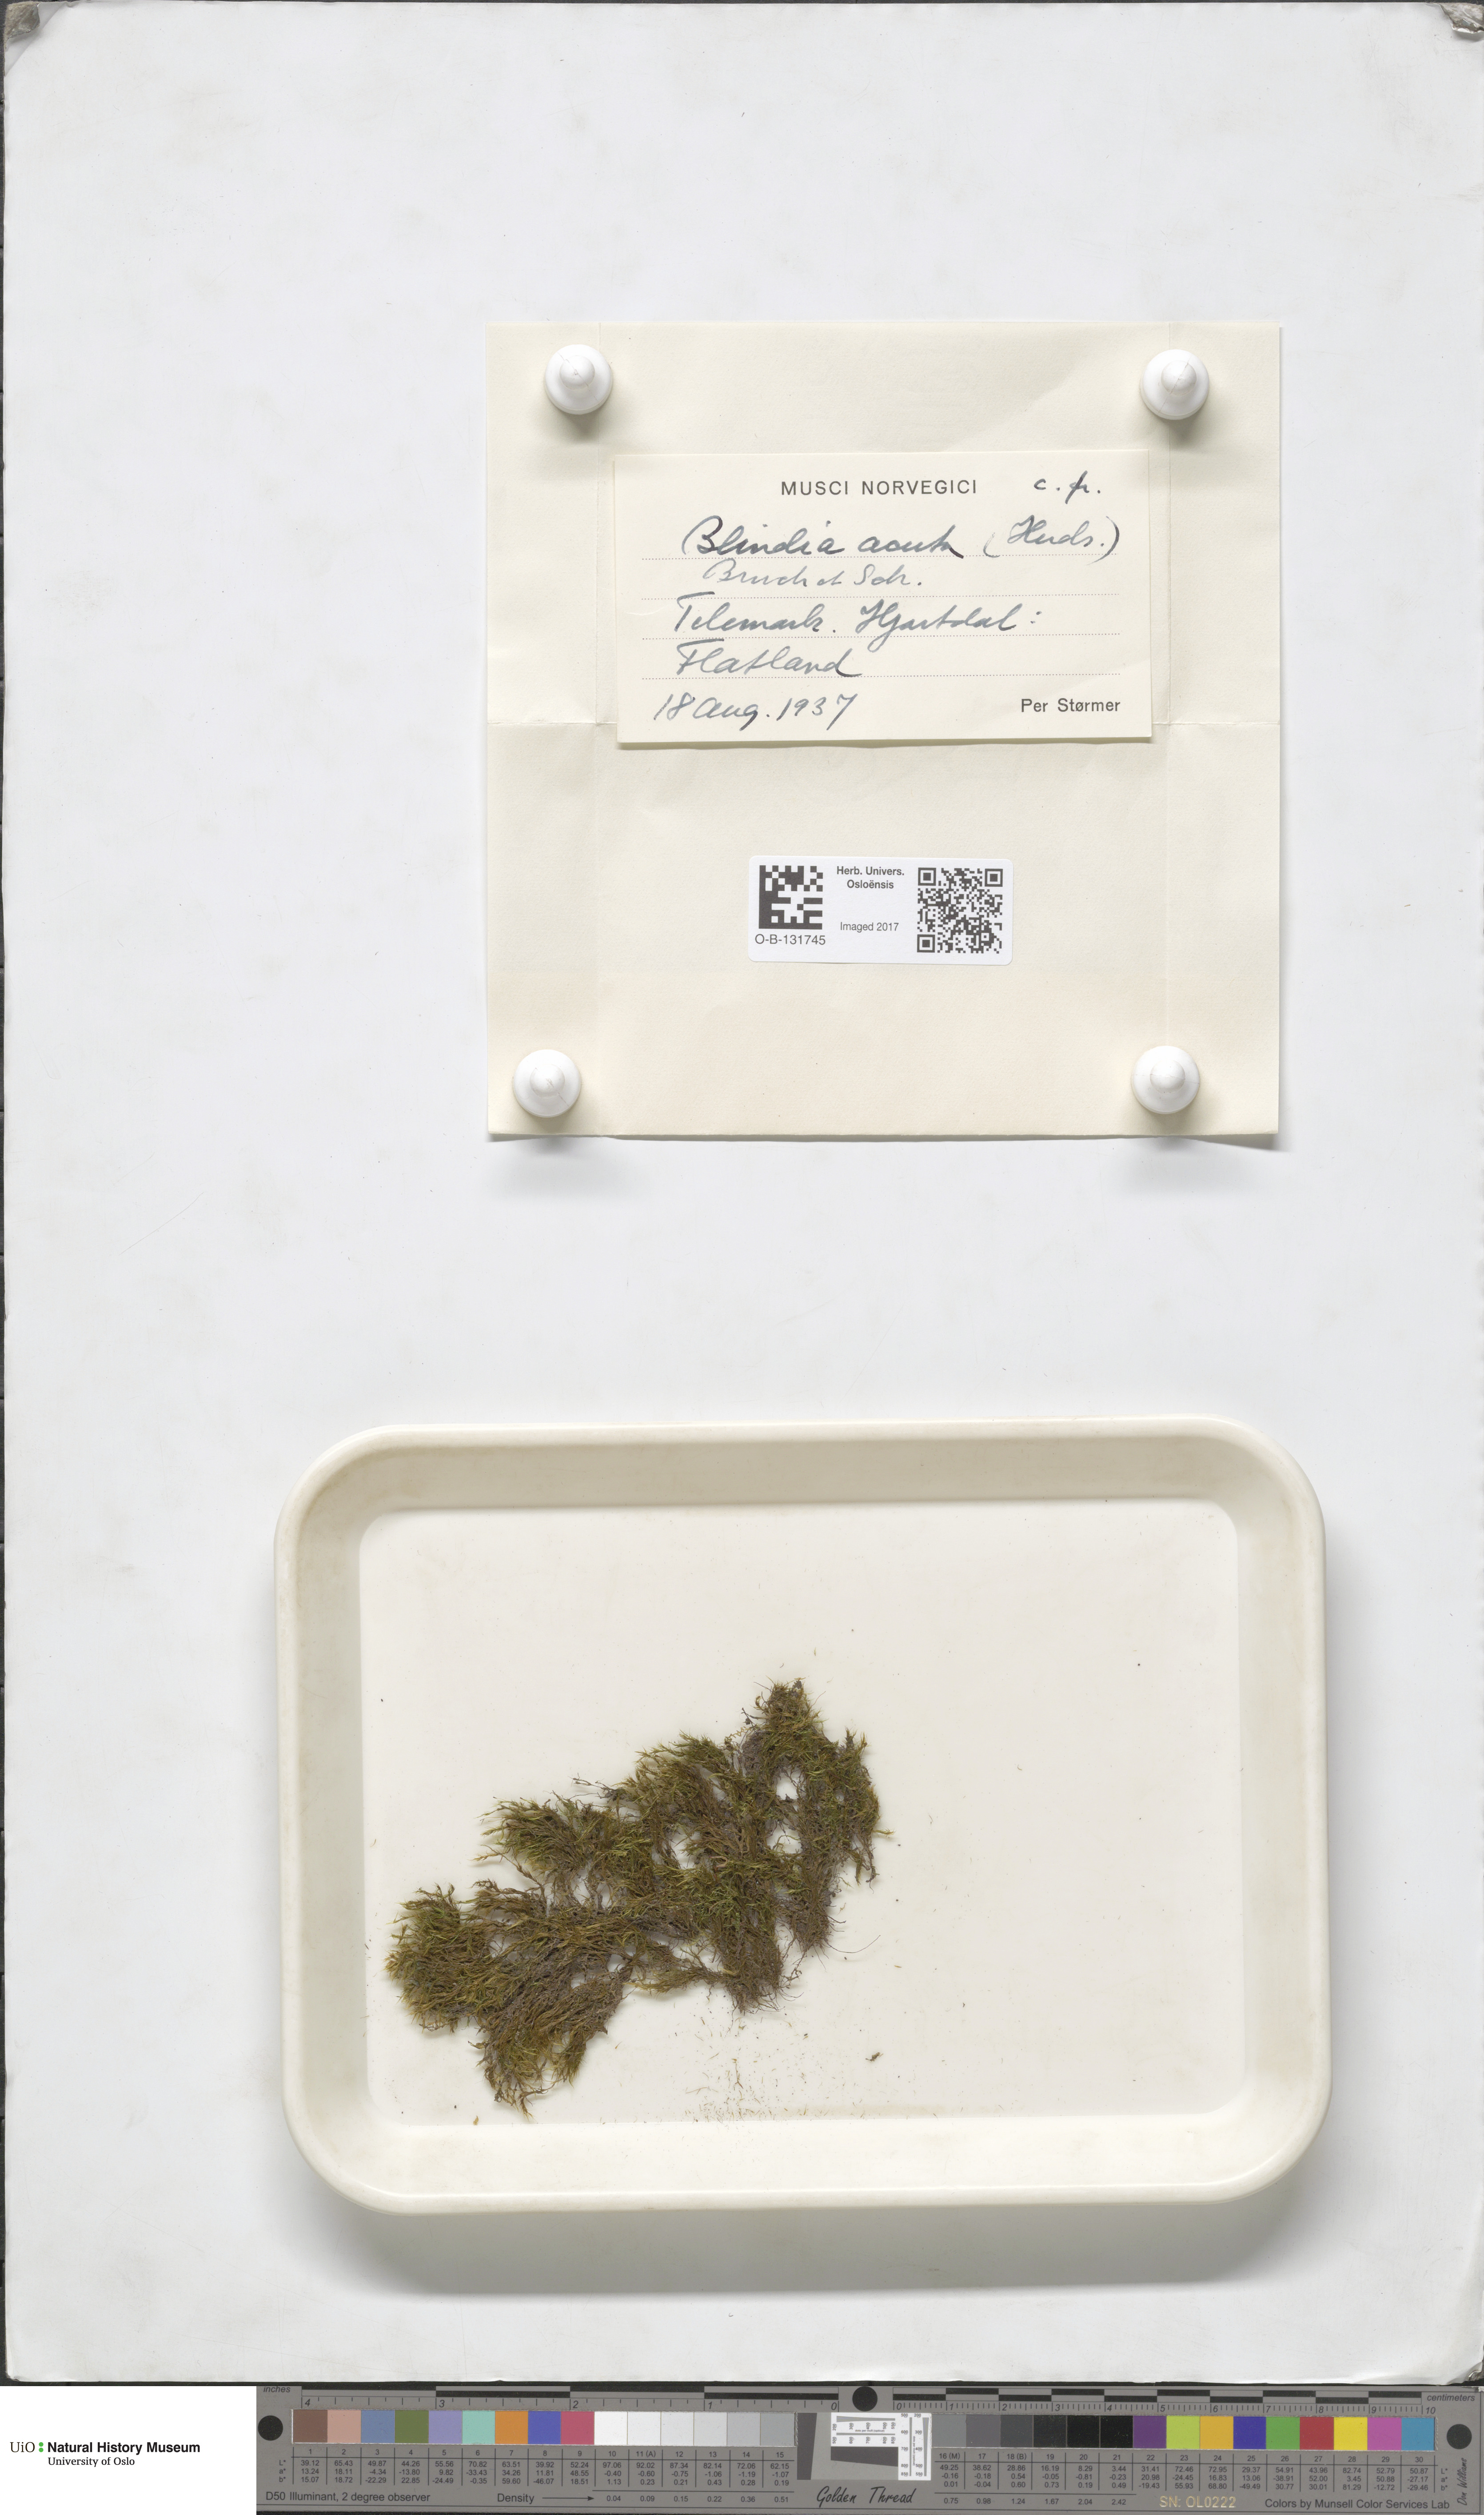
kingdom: Plantae
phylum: Bryophyta
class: Bryopsida
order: Grimmiales
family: Seligeriaceae
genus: Blindia
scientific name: Blindia acuta
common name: Sharp-leaved blind's moss
